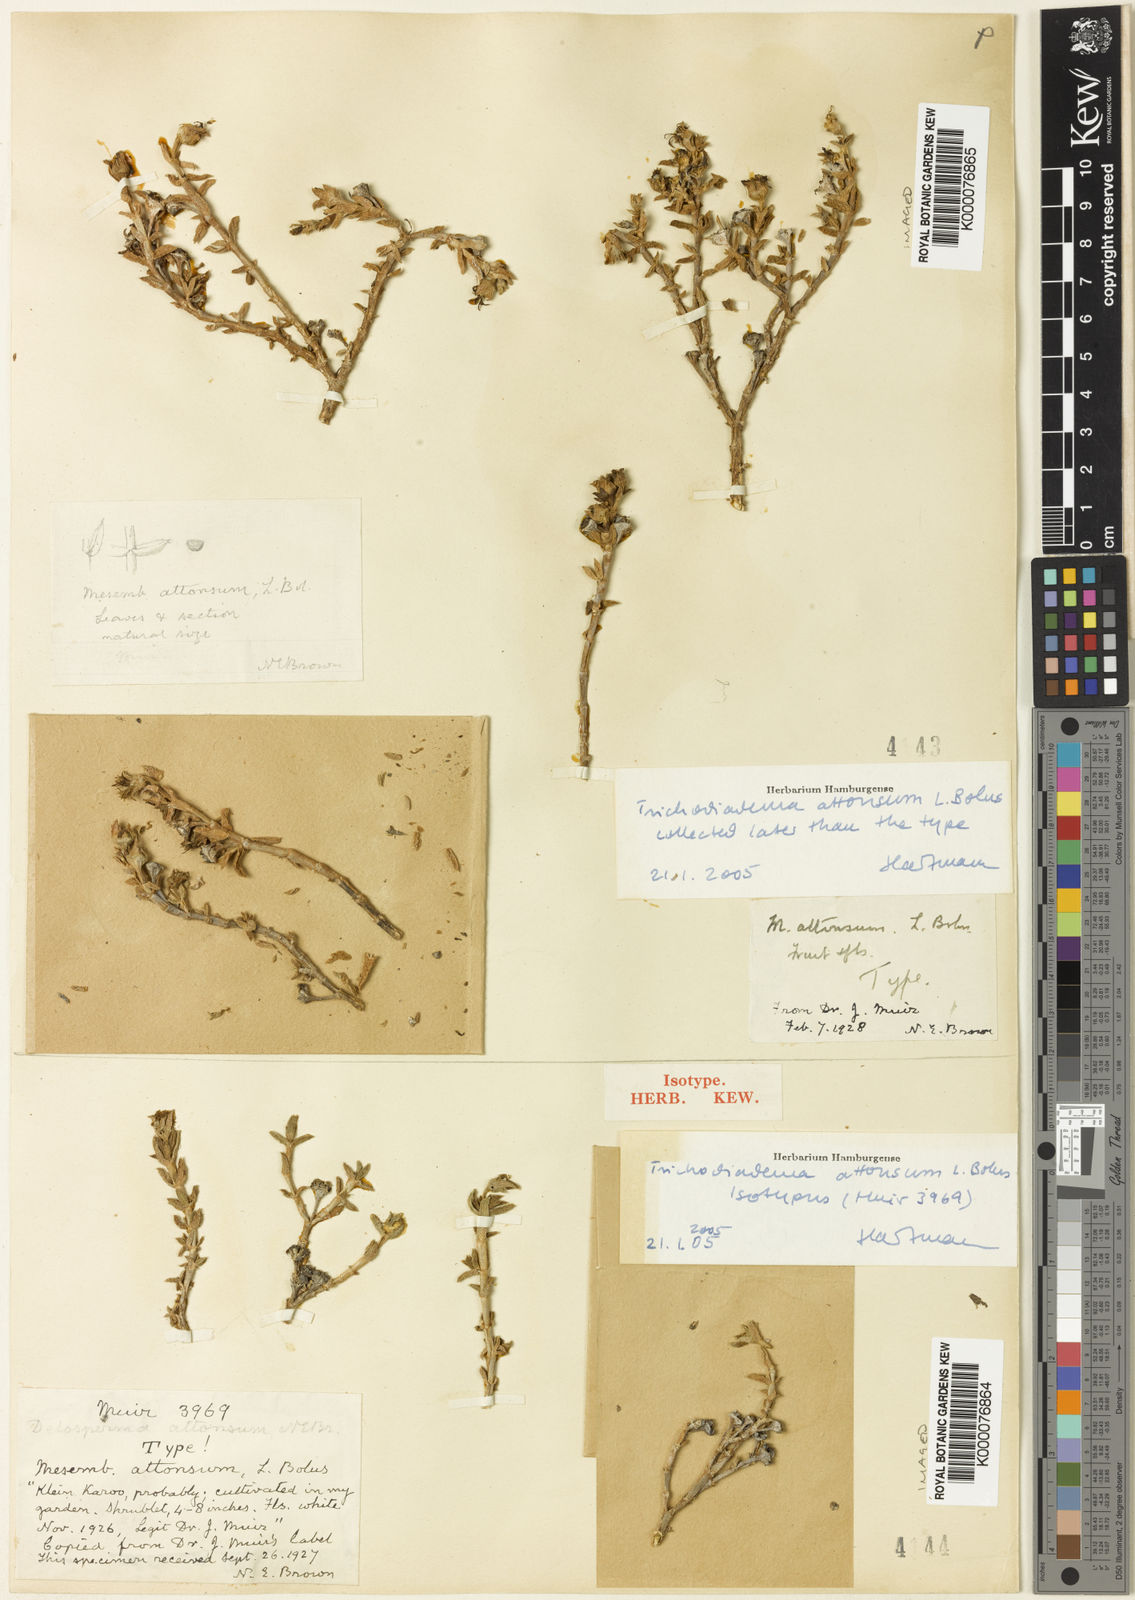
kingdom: Plantae
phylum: Tracheophyta
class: Magnoliopsida
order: Caryophyllales
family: Aizoaceae
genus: Trichodiadema
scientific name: Trichodiadema attonsum
